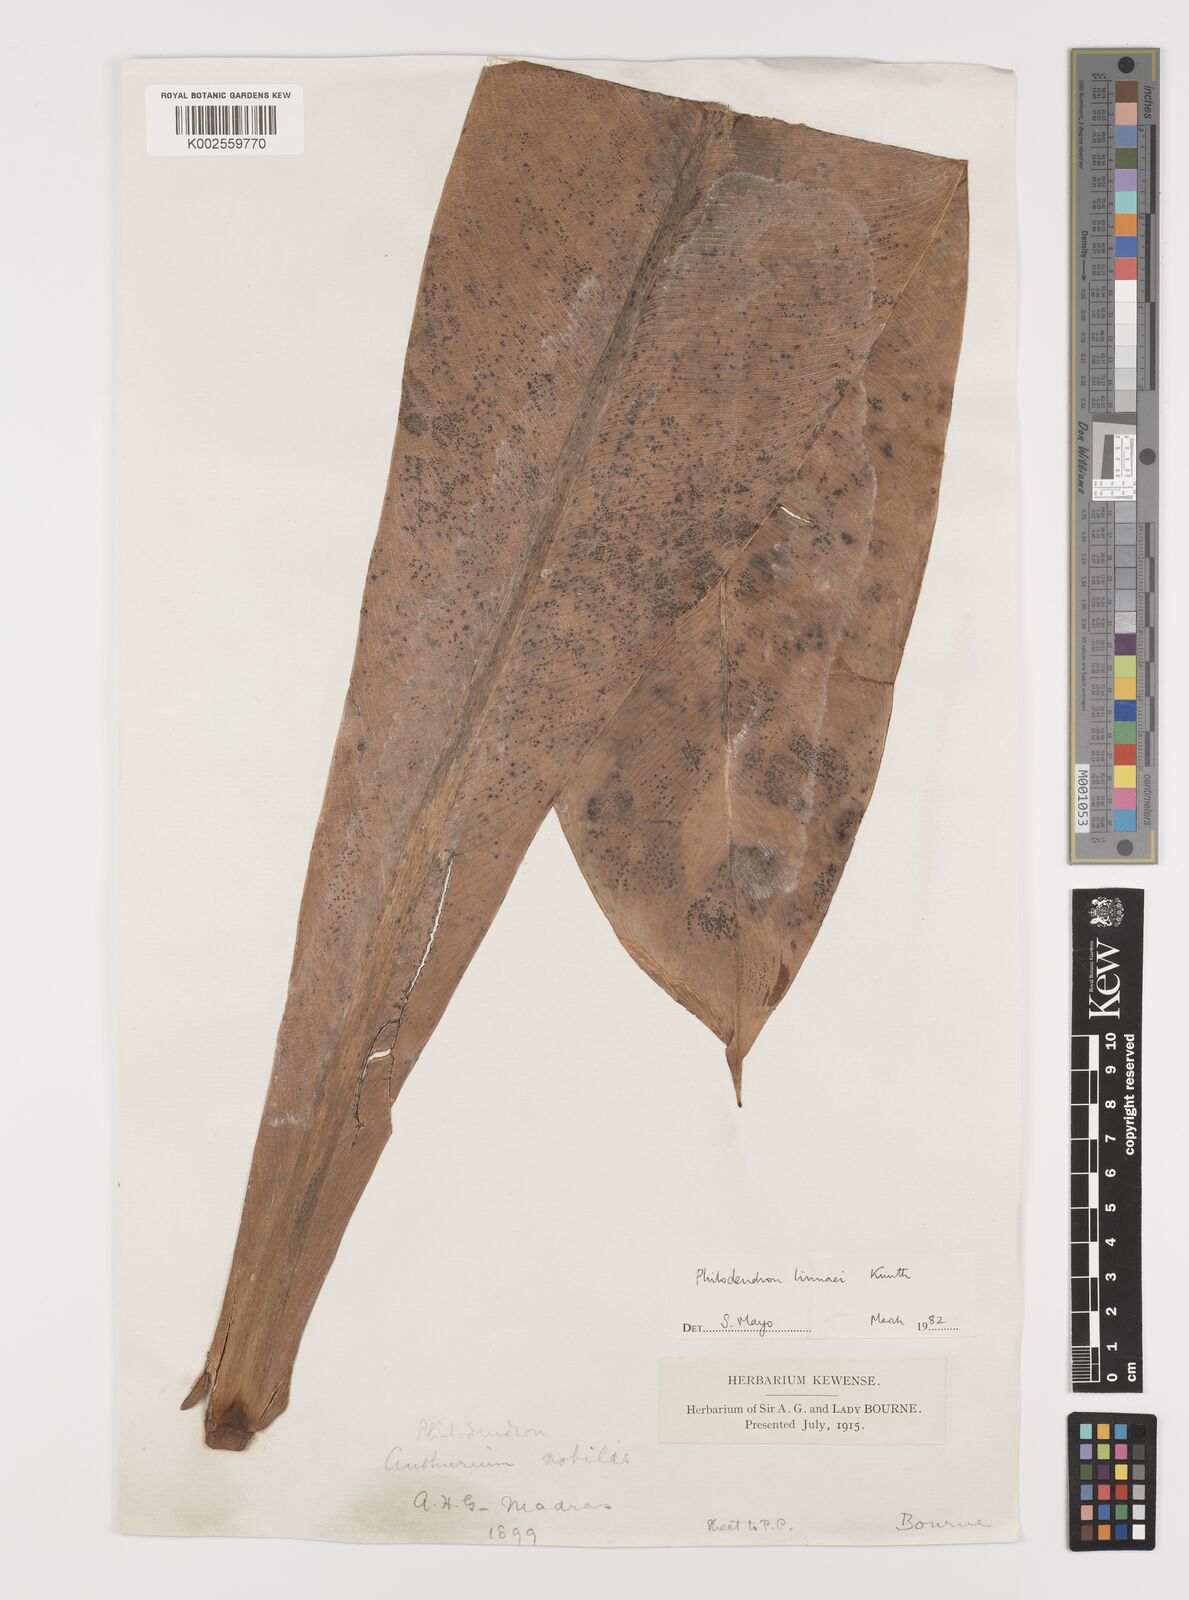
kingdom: Plantae
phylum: Tracheophyta
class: Liliopsida
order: Alismatales
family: Araceae
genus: Philodendron
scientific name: Philodendron linnaei
